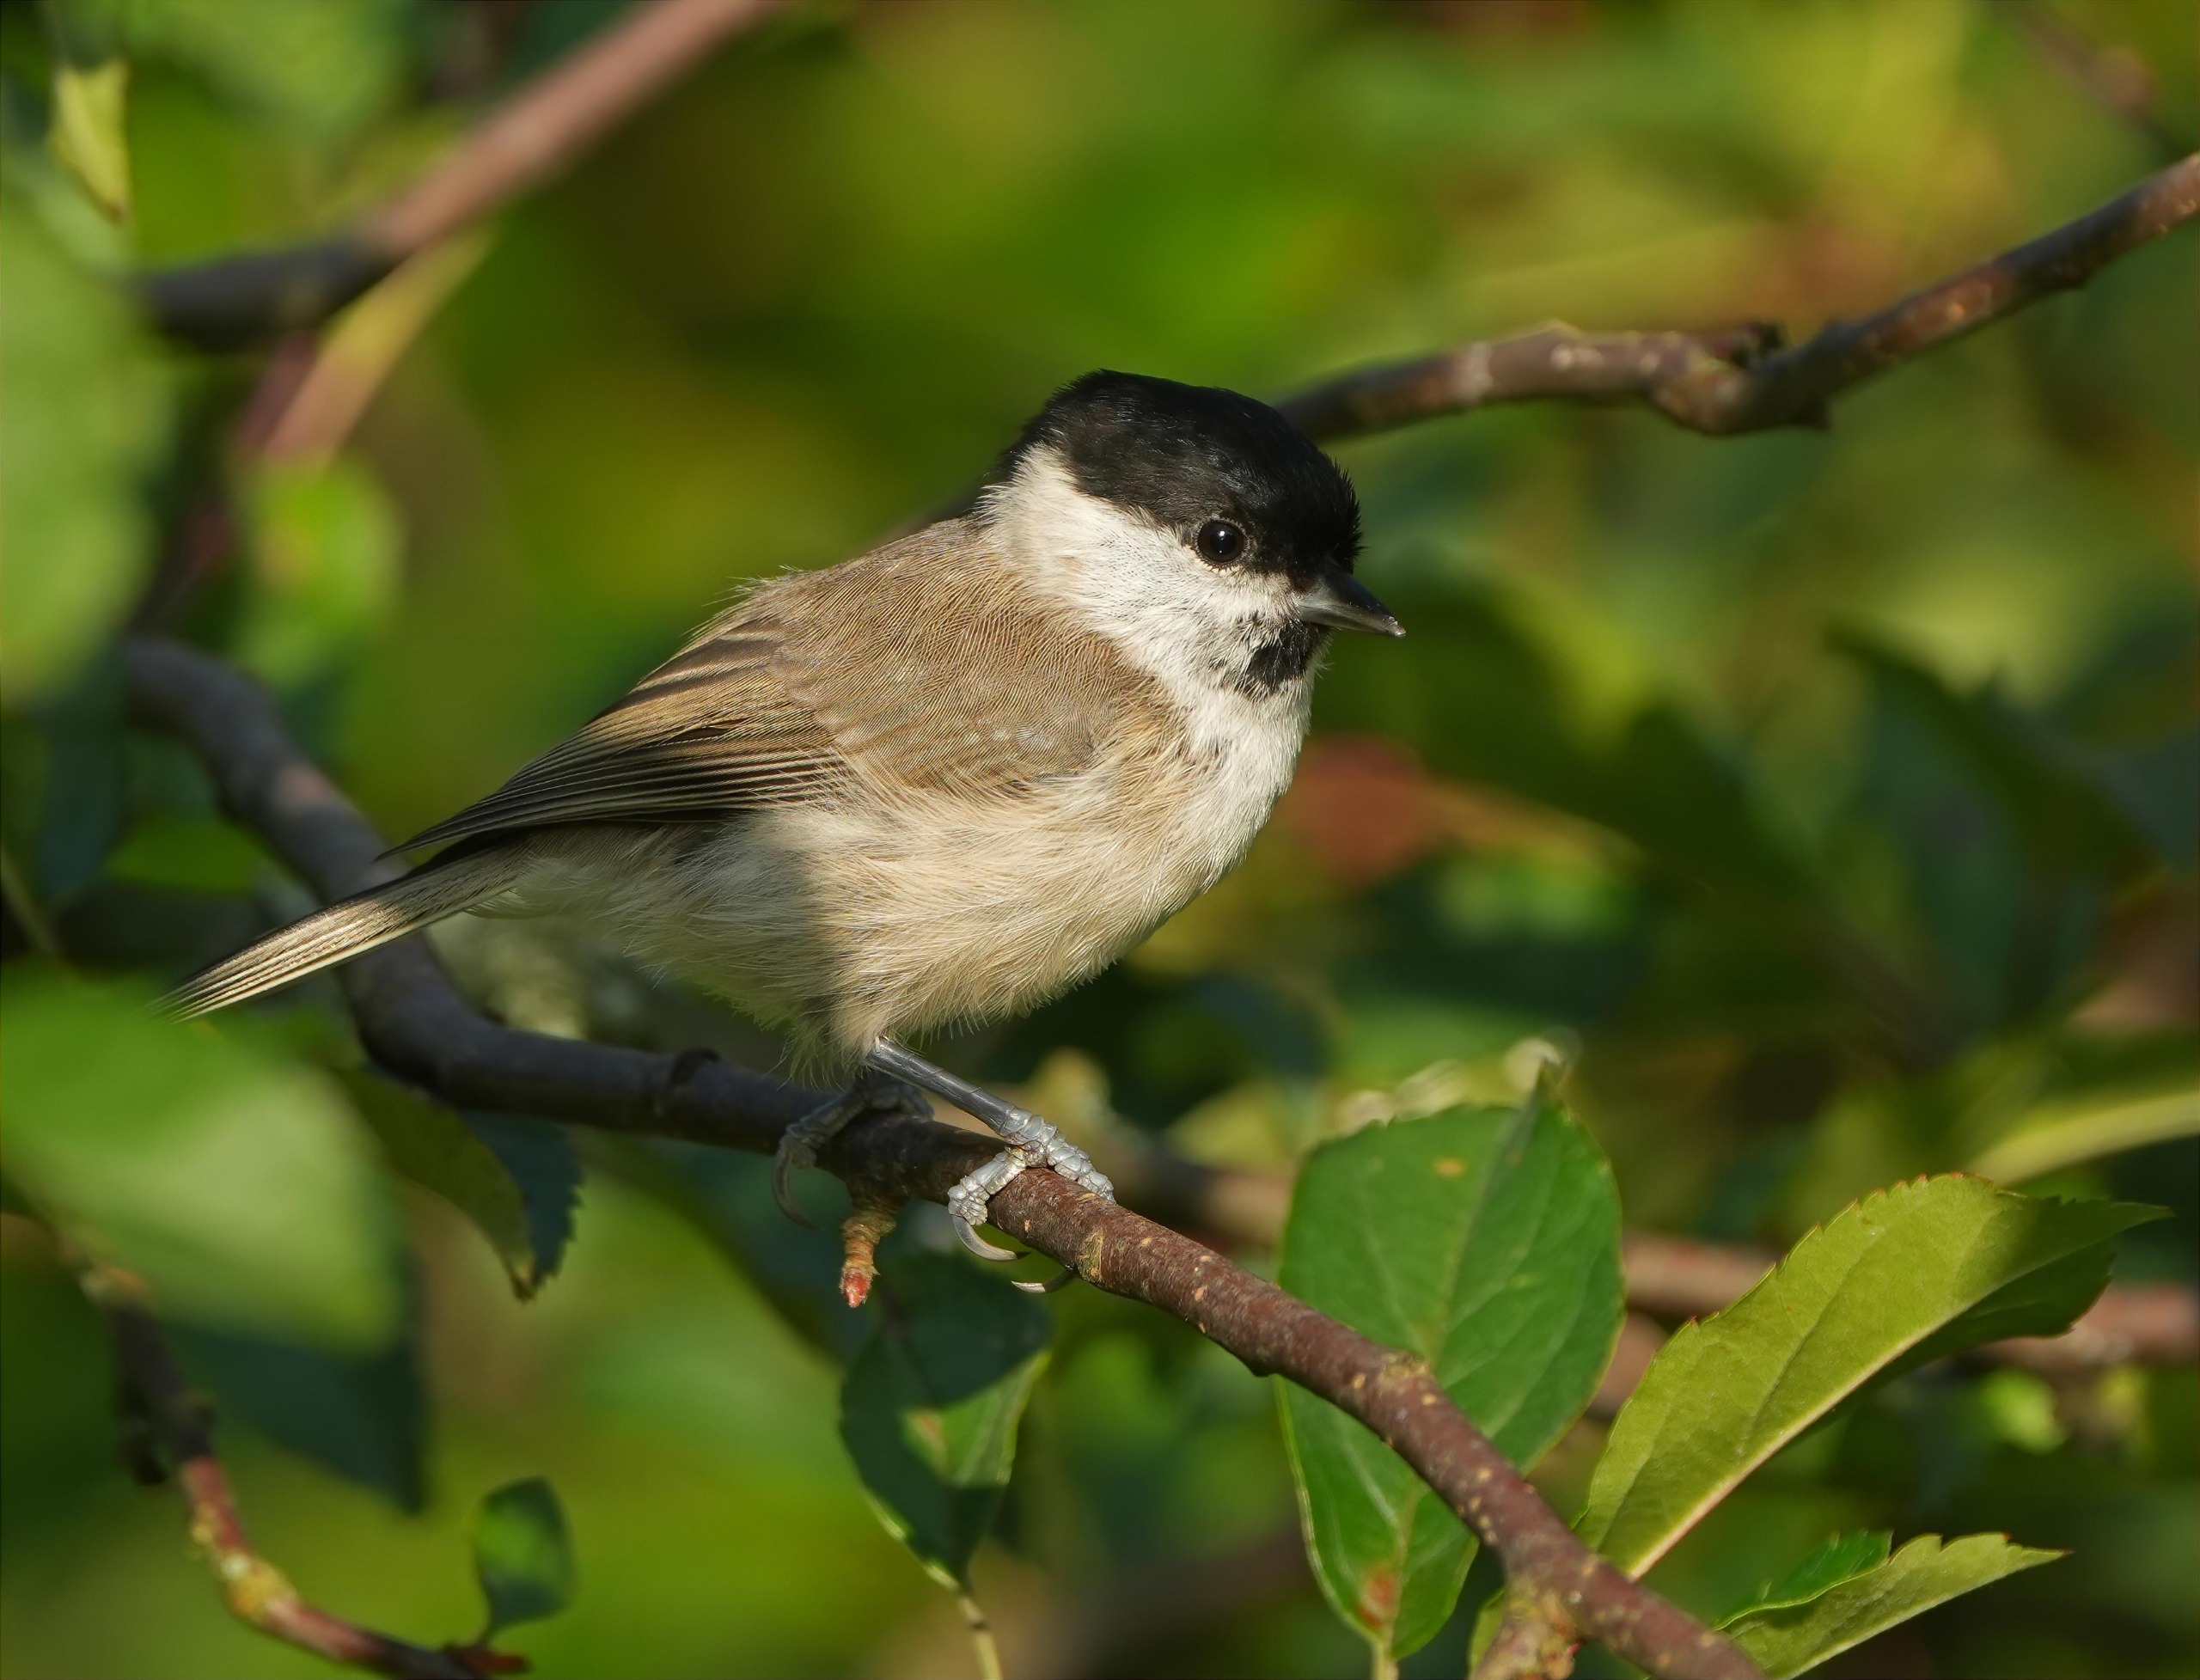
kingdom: Animalia
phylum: Chordata
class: Aves
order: Passeriformes
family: Paridae
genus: Poecile
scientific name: Poecile palustris
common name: Sumpmejse
